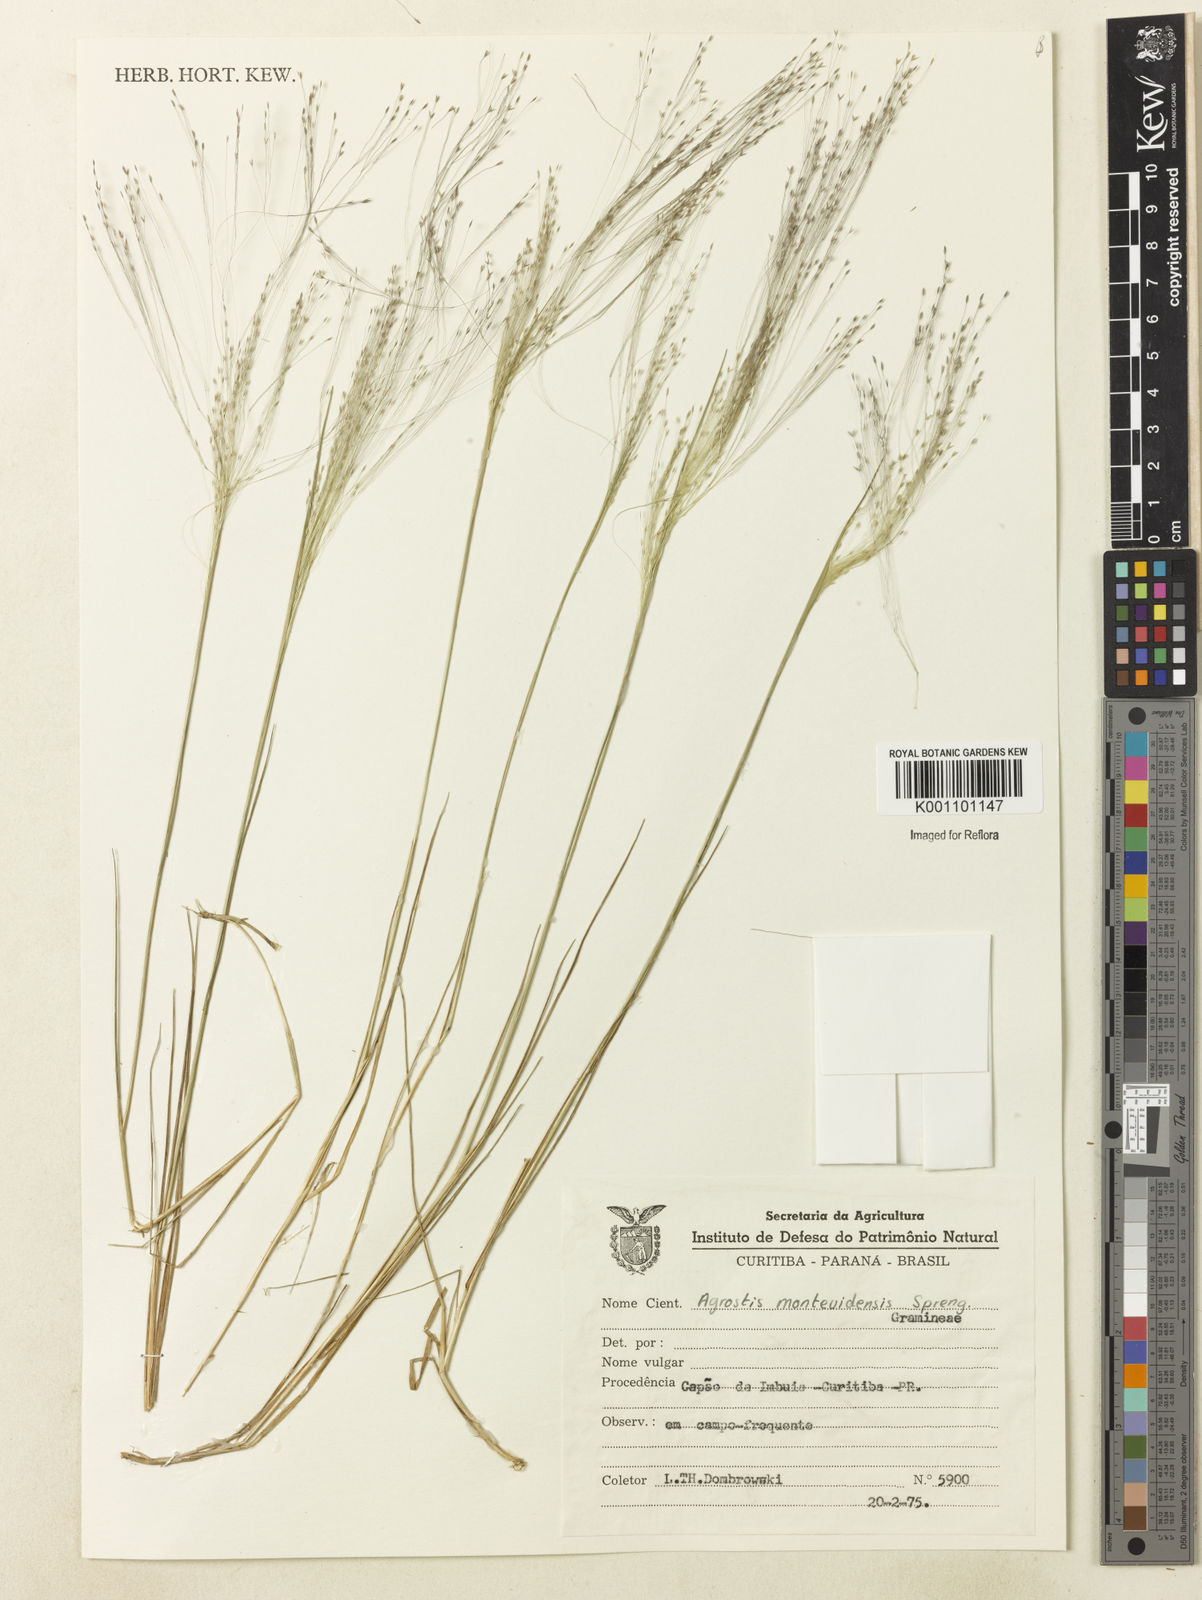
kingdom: Plantae
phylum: Tracheophyta
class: Liliopsida
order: Poales
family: Poaceae
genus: Agrostis
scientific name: Agrostis montevidensis
